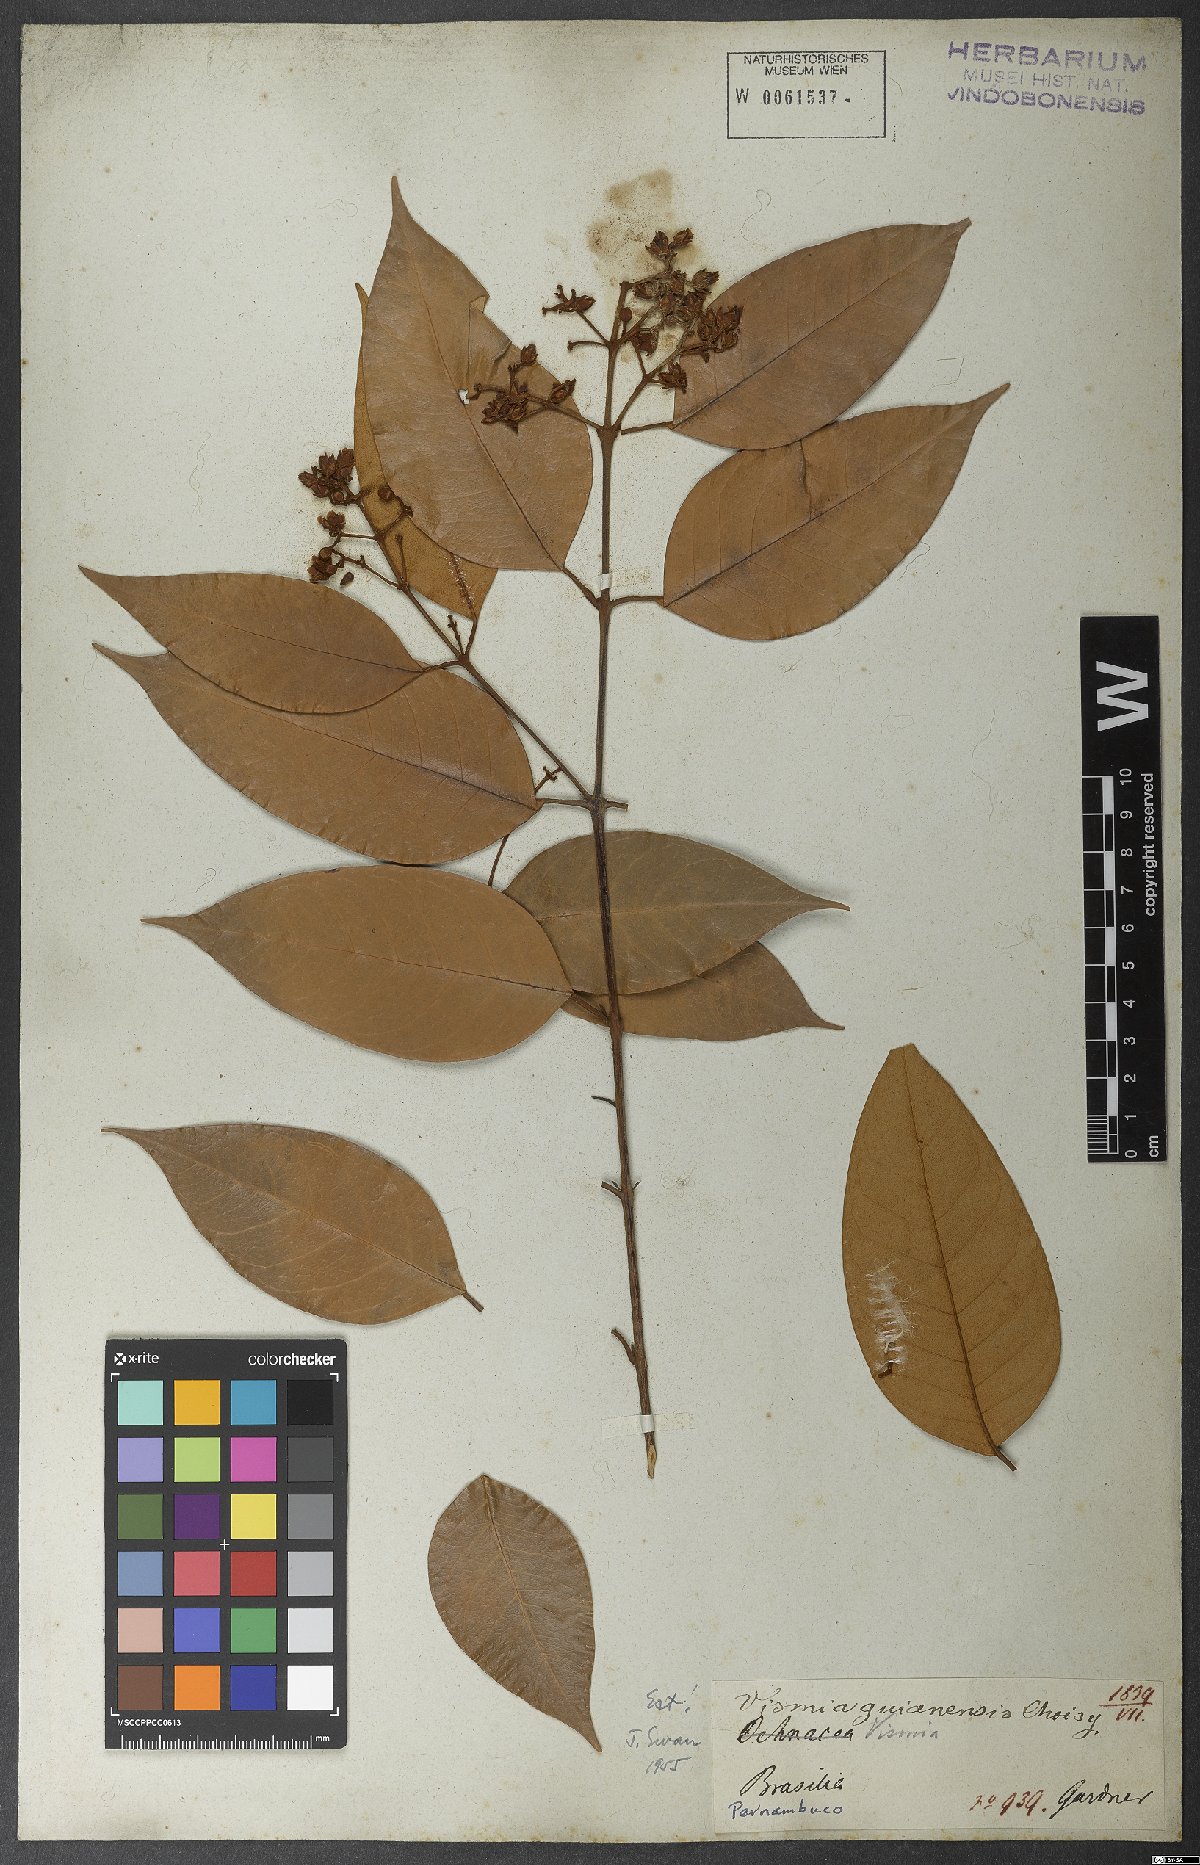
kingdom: Plantae
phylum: Tracheophyta
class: Magnoliopsida
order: Malpighiales
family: Hypericaceae
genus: Vismia
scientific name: Vismia guianensis
